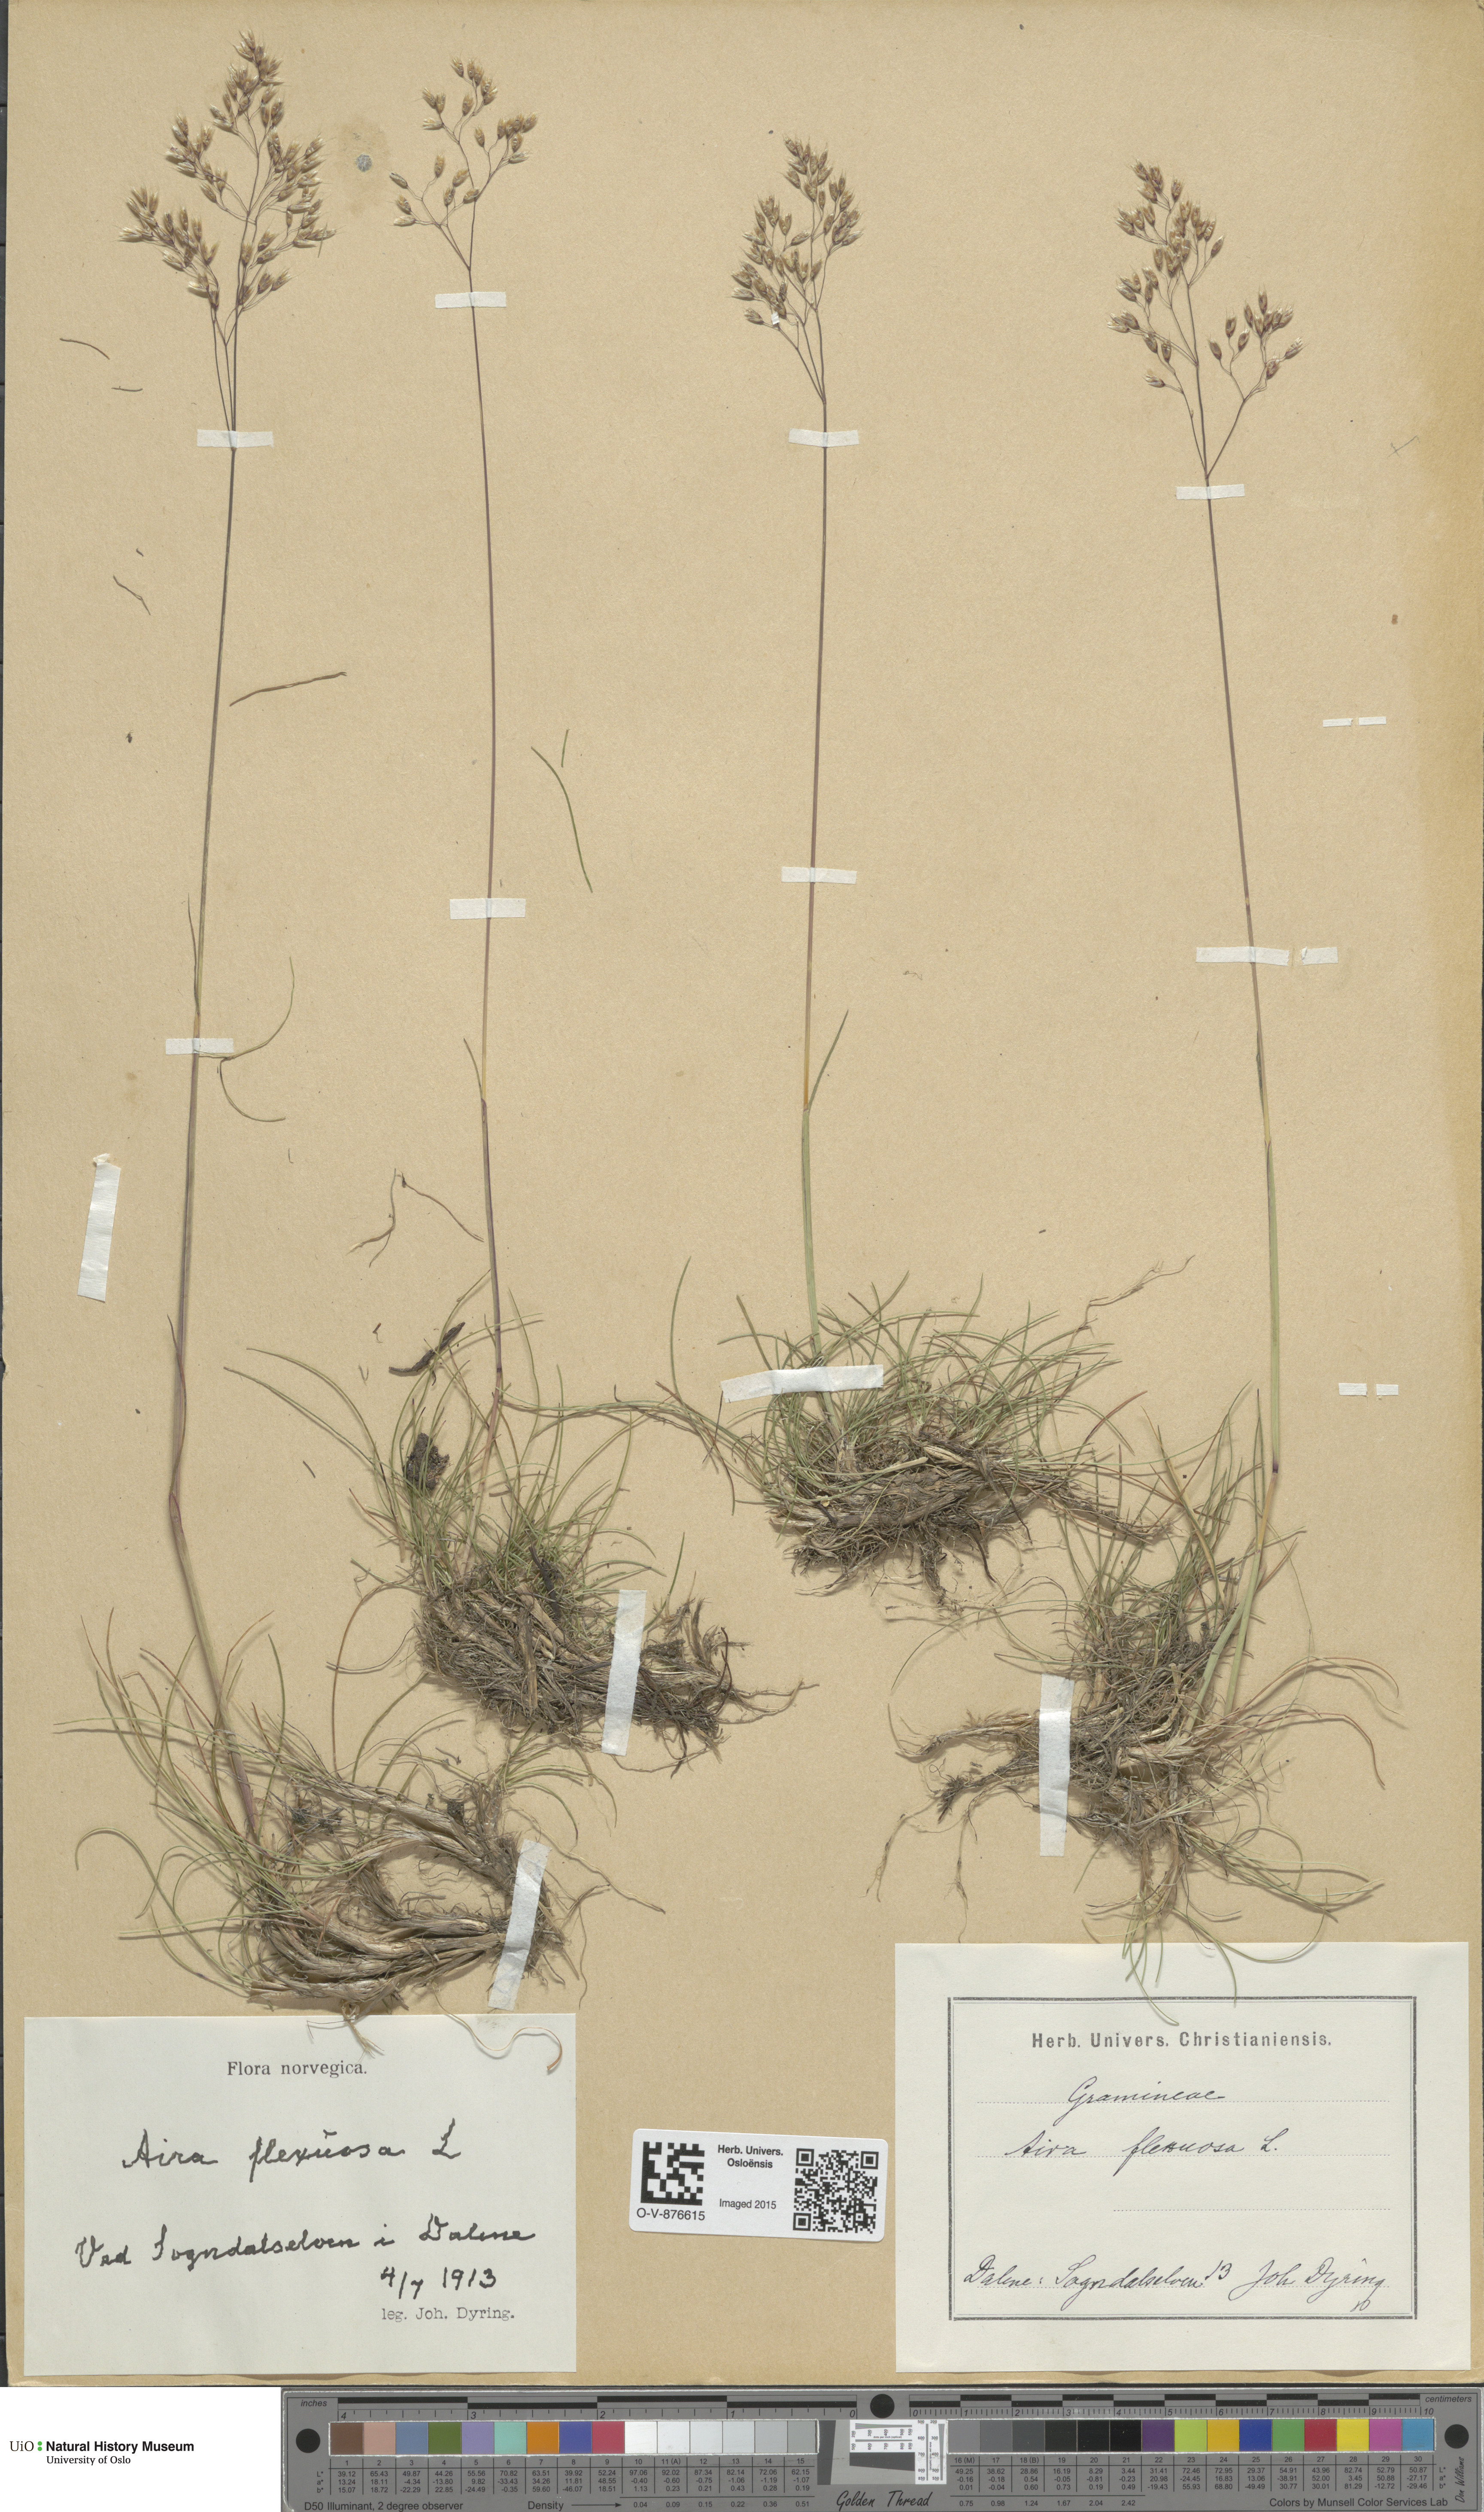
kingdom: Plantae
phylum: Tracheophyta
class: Liliopsida
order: Poales
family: Poaceae
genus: Avenella
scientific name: Avenella flexuosa
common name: Wavy hairgrass
